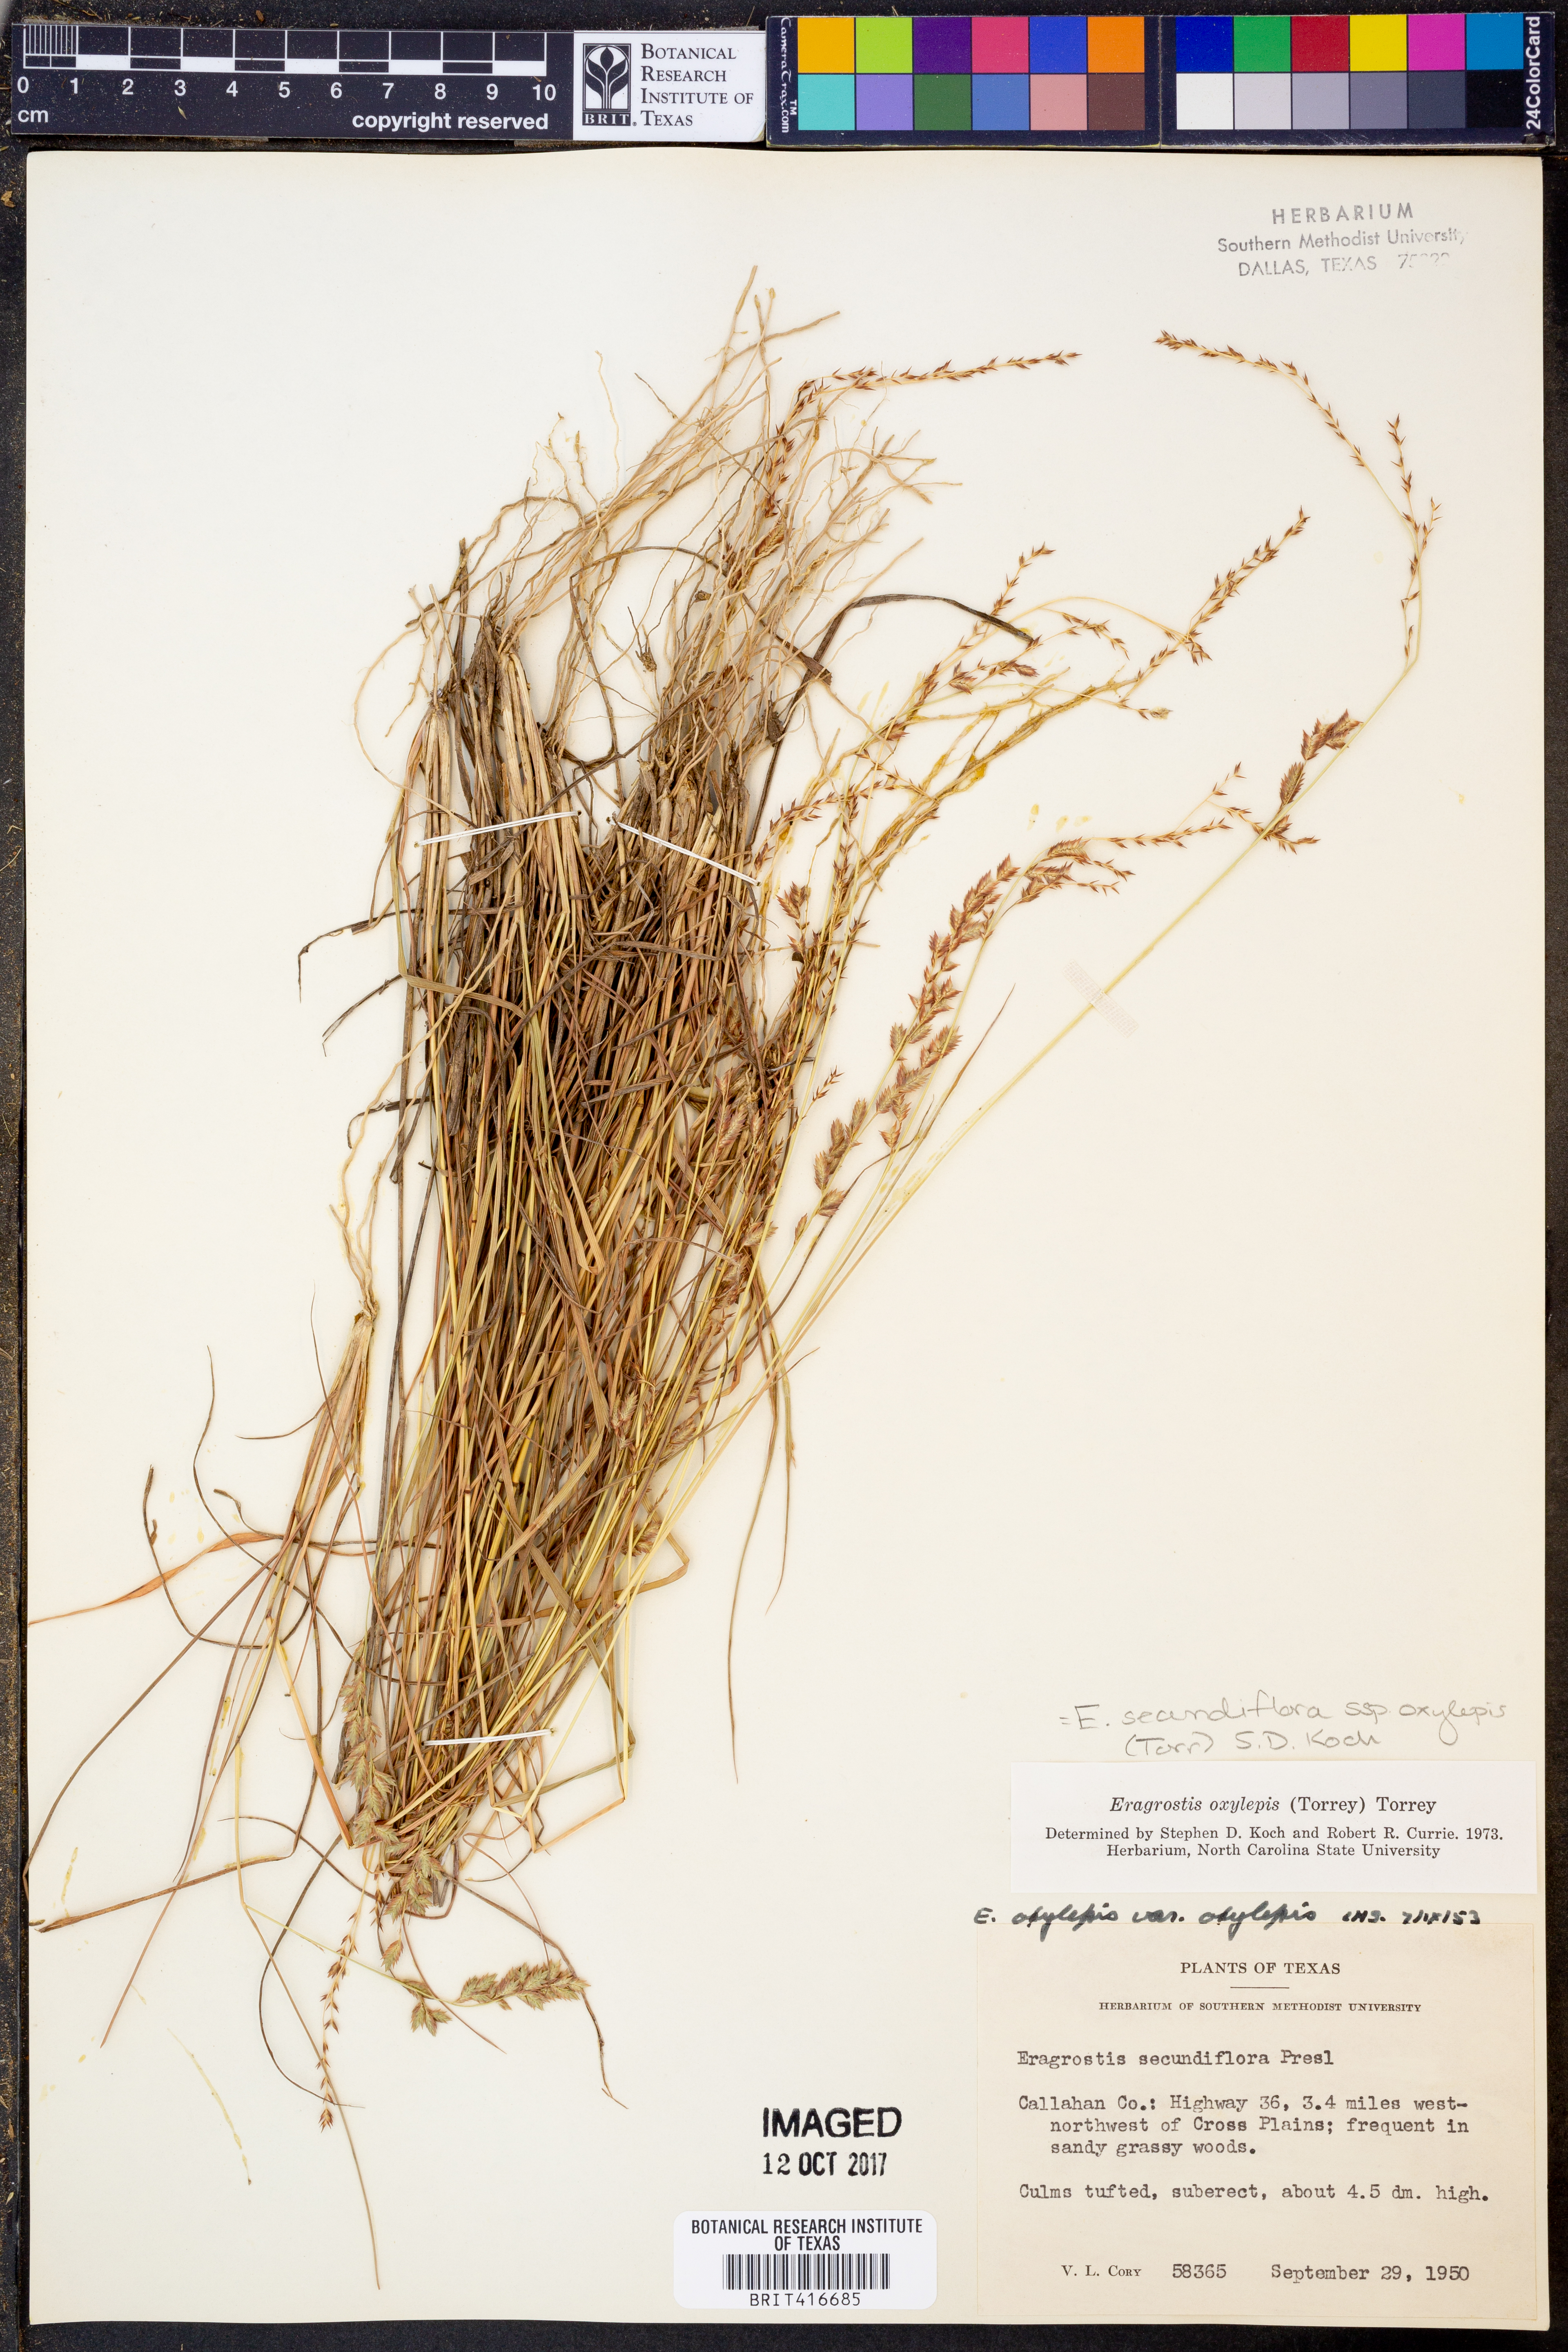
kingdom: Plantae
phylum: Tracheophyta
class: Liliopsida
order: Poales
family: Poaceae
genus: Eragrostis
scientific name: Eragrostis secundiflora
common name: Red love grass
